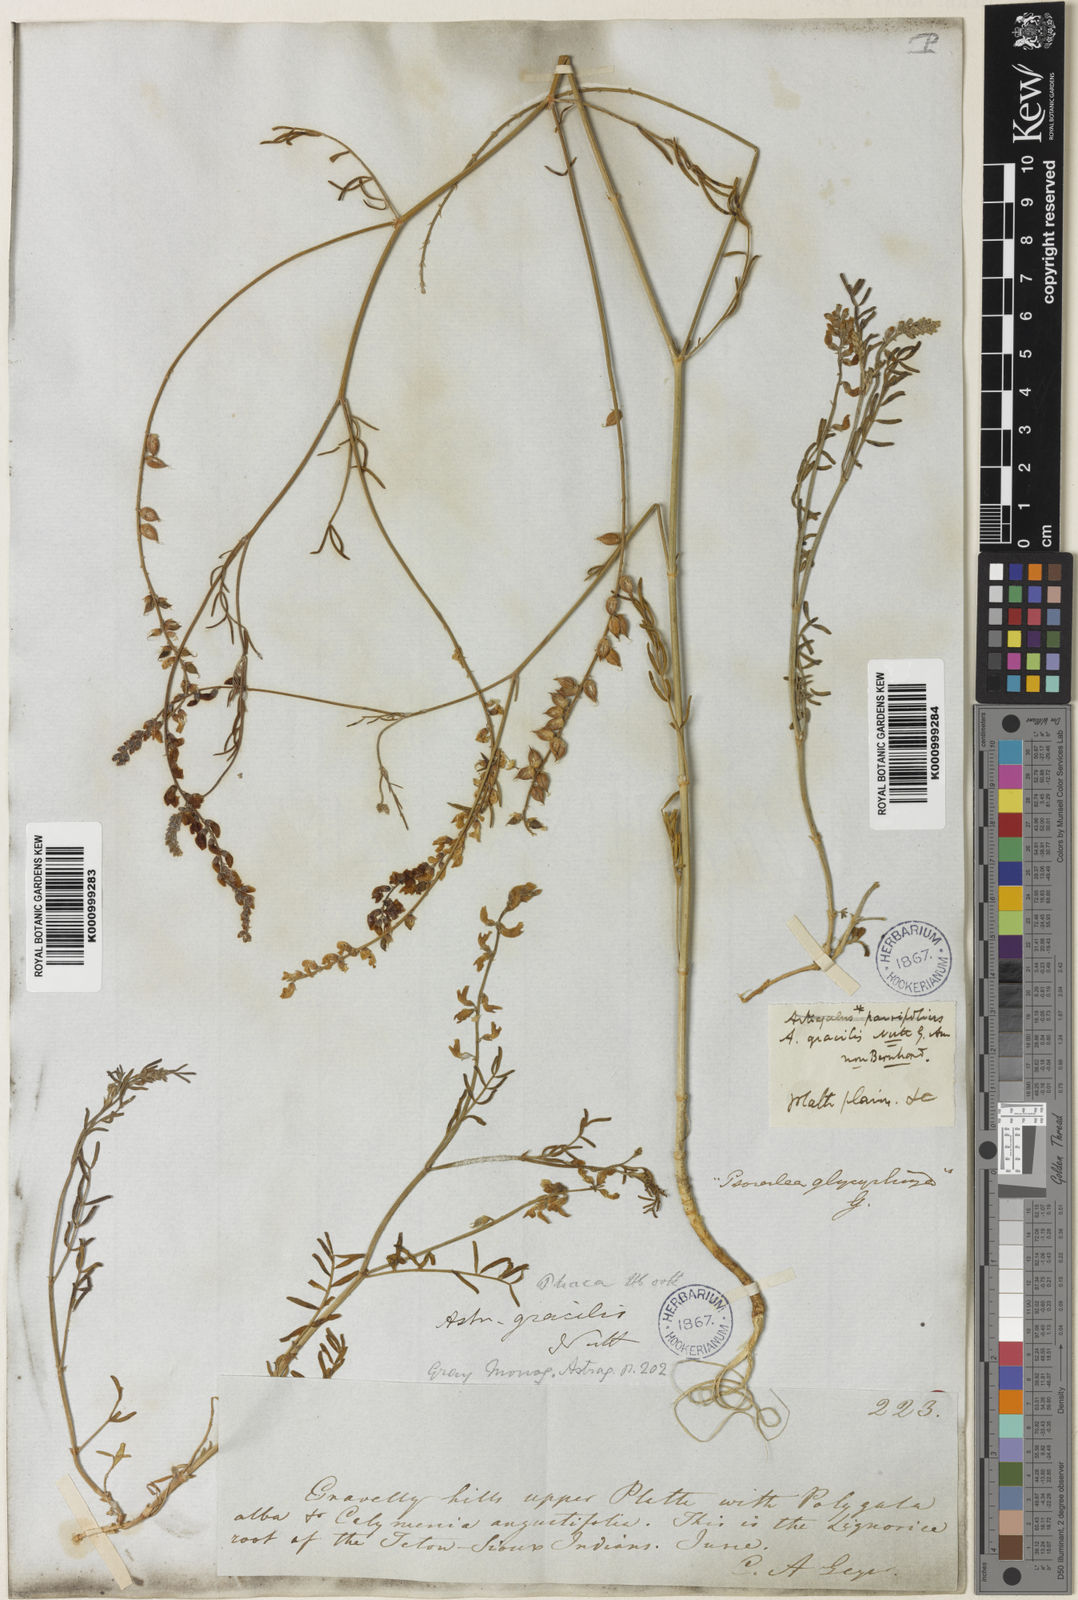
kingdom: Plantae
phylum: Tracheophyta
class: Magnoliopsida
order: Fabales
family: Fabaceae
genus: Astragalus
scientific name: Astragalus gracilis
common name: Slender milk-vetch
